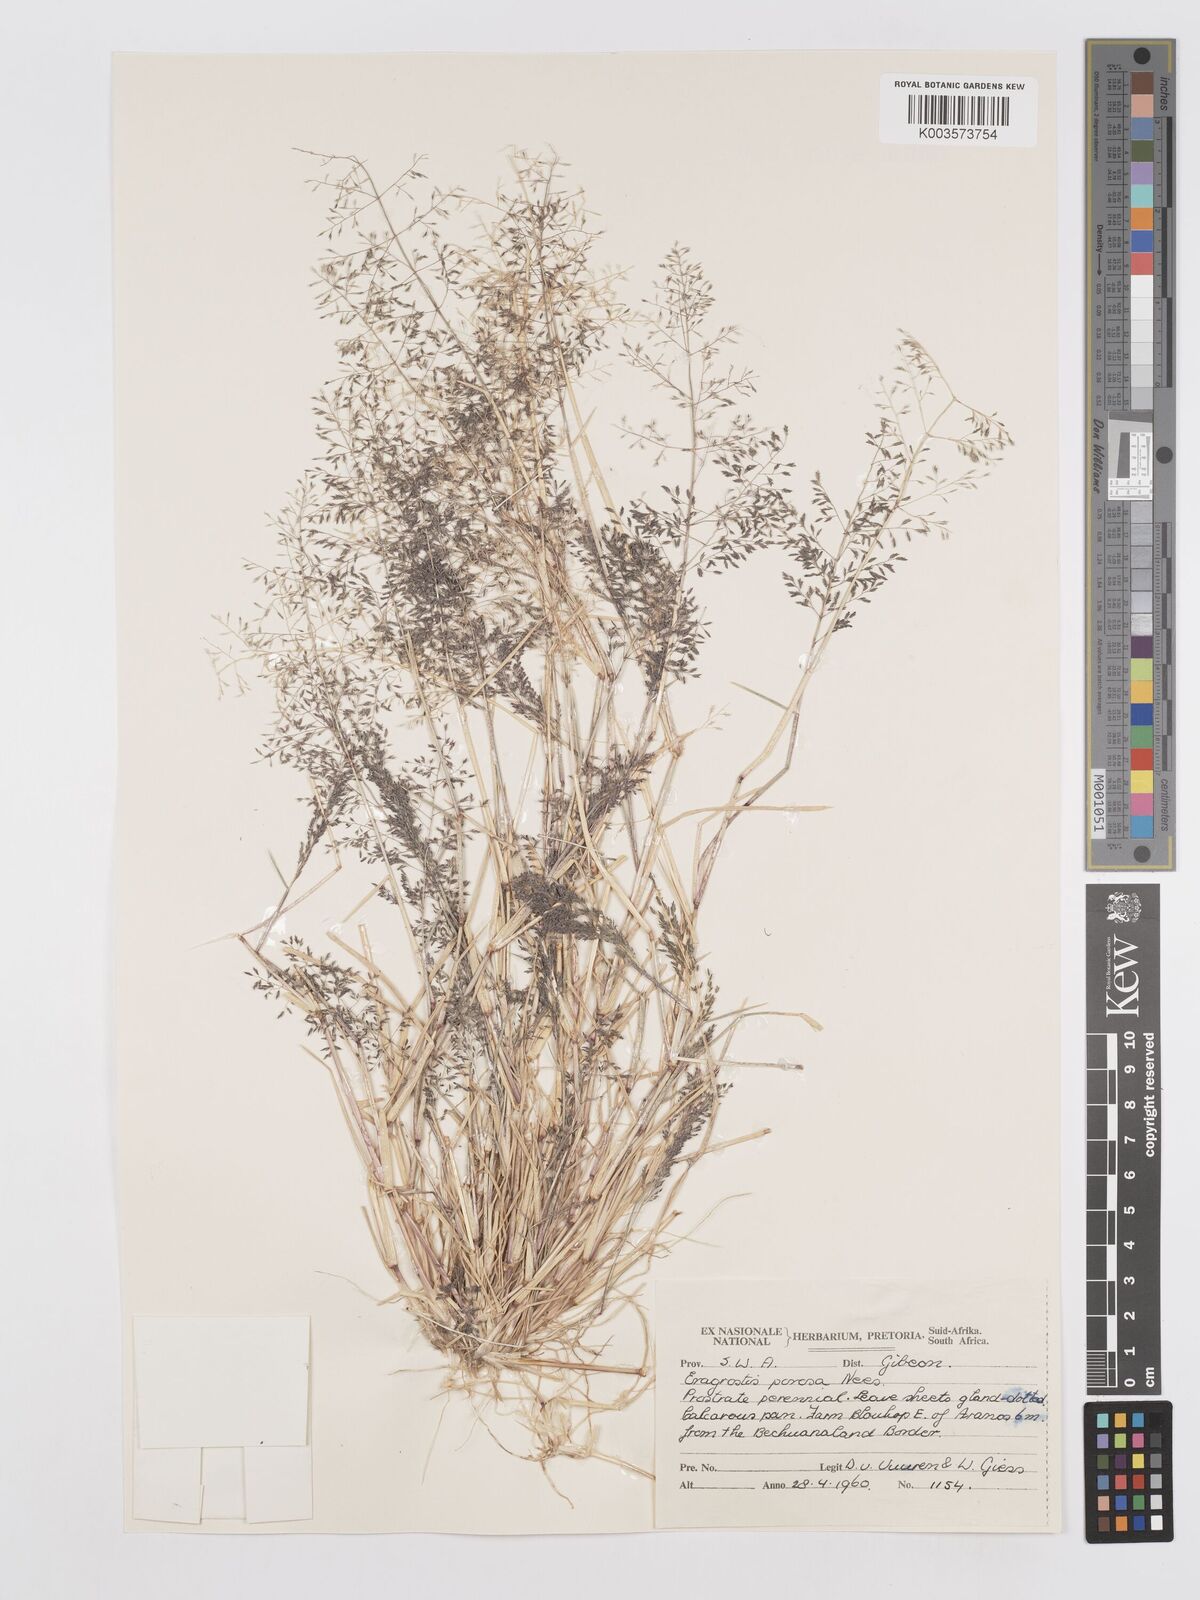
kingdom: Plantae
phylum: Tracheophyta
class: Liliopsida
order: Poales
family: Poaceae
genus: Eragrostis
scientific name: Eragrostis porosa
